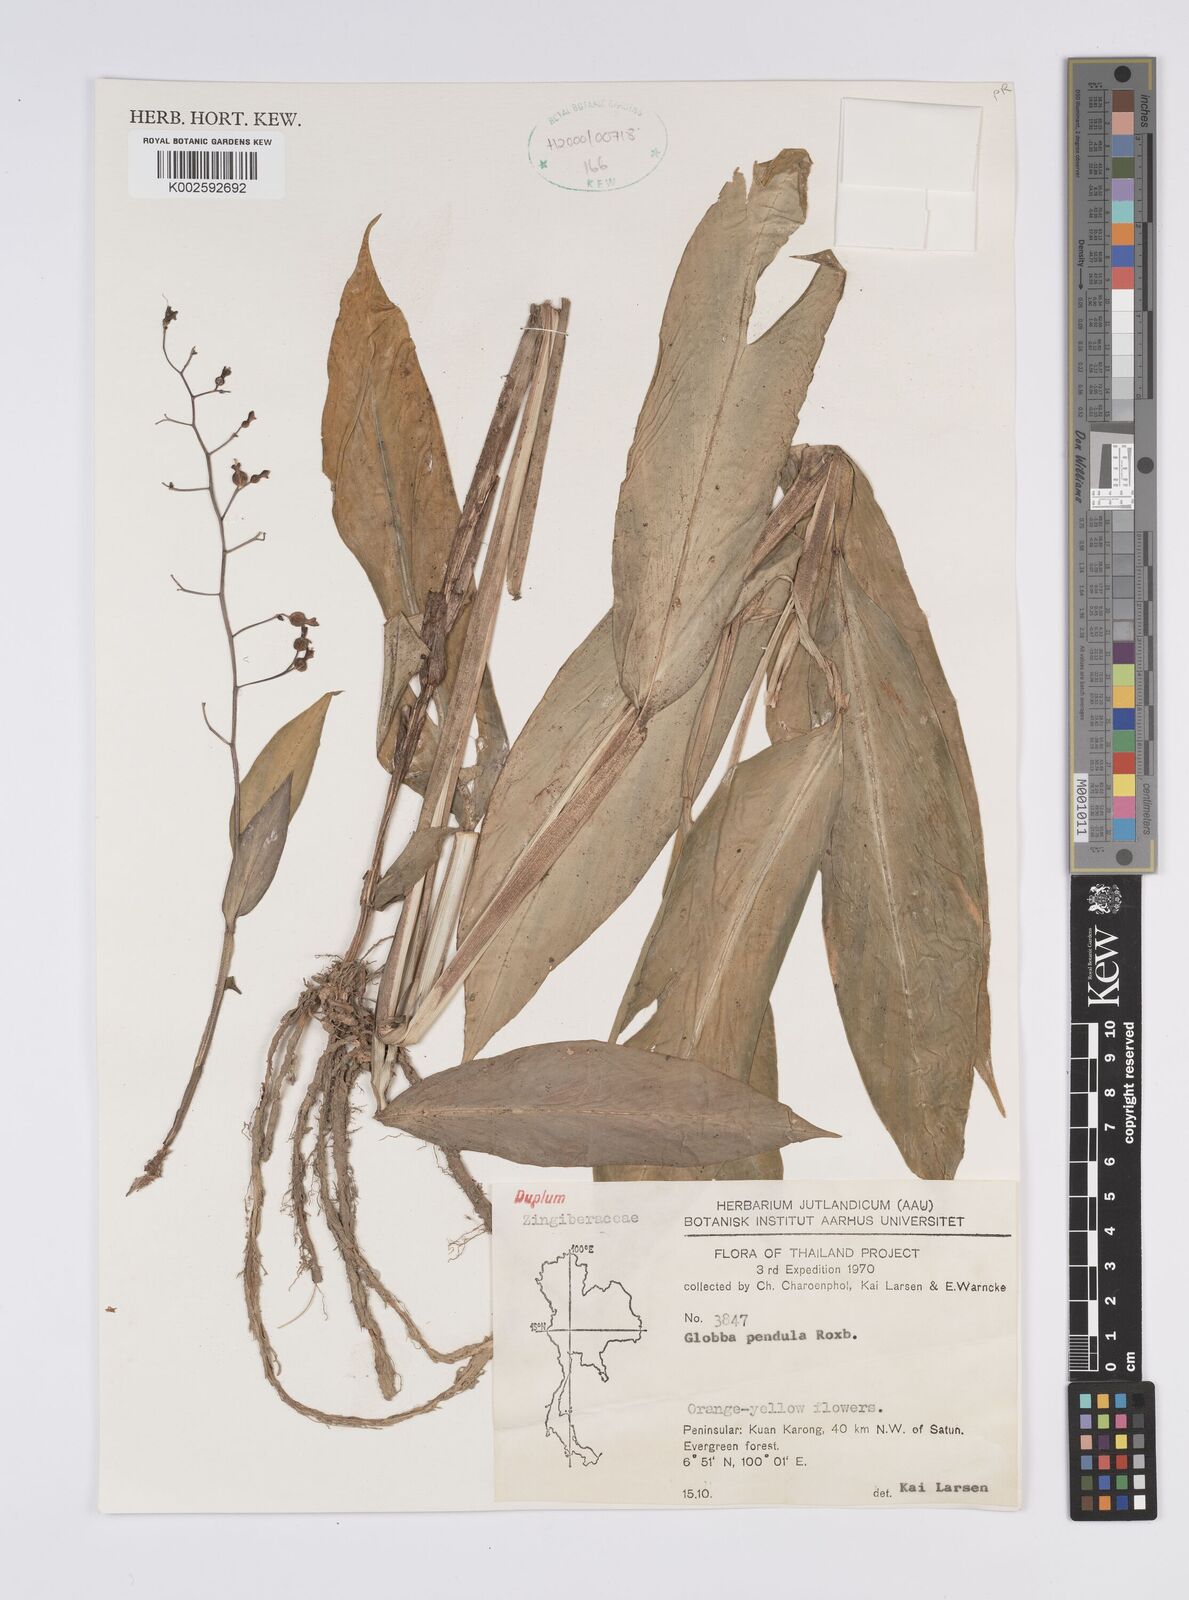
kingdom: Plantae
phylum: Tracheophyta
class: Liliopsida
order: Zingiberales
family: Zingiberaceae
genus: Globba
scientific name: Globba pendula
